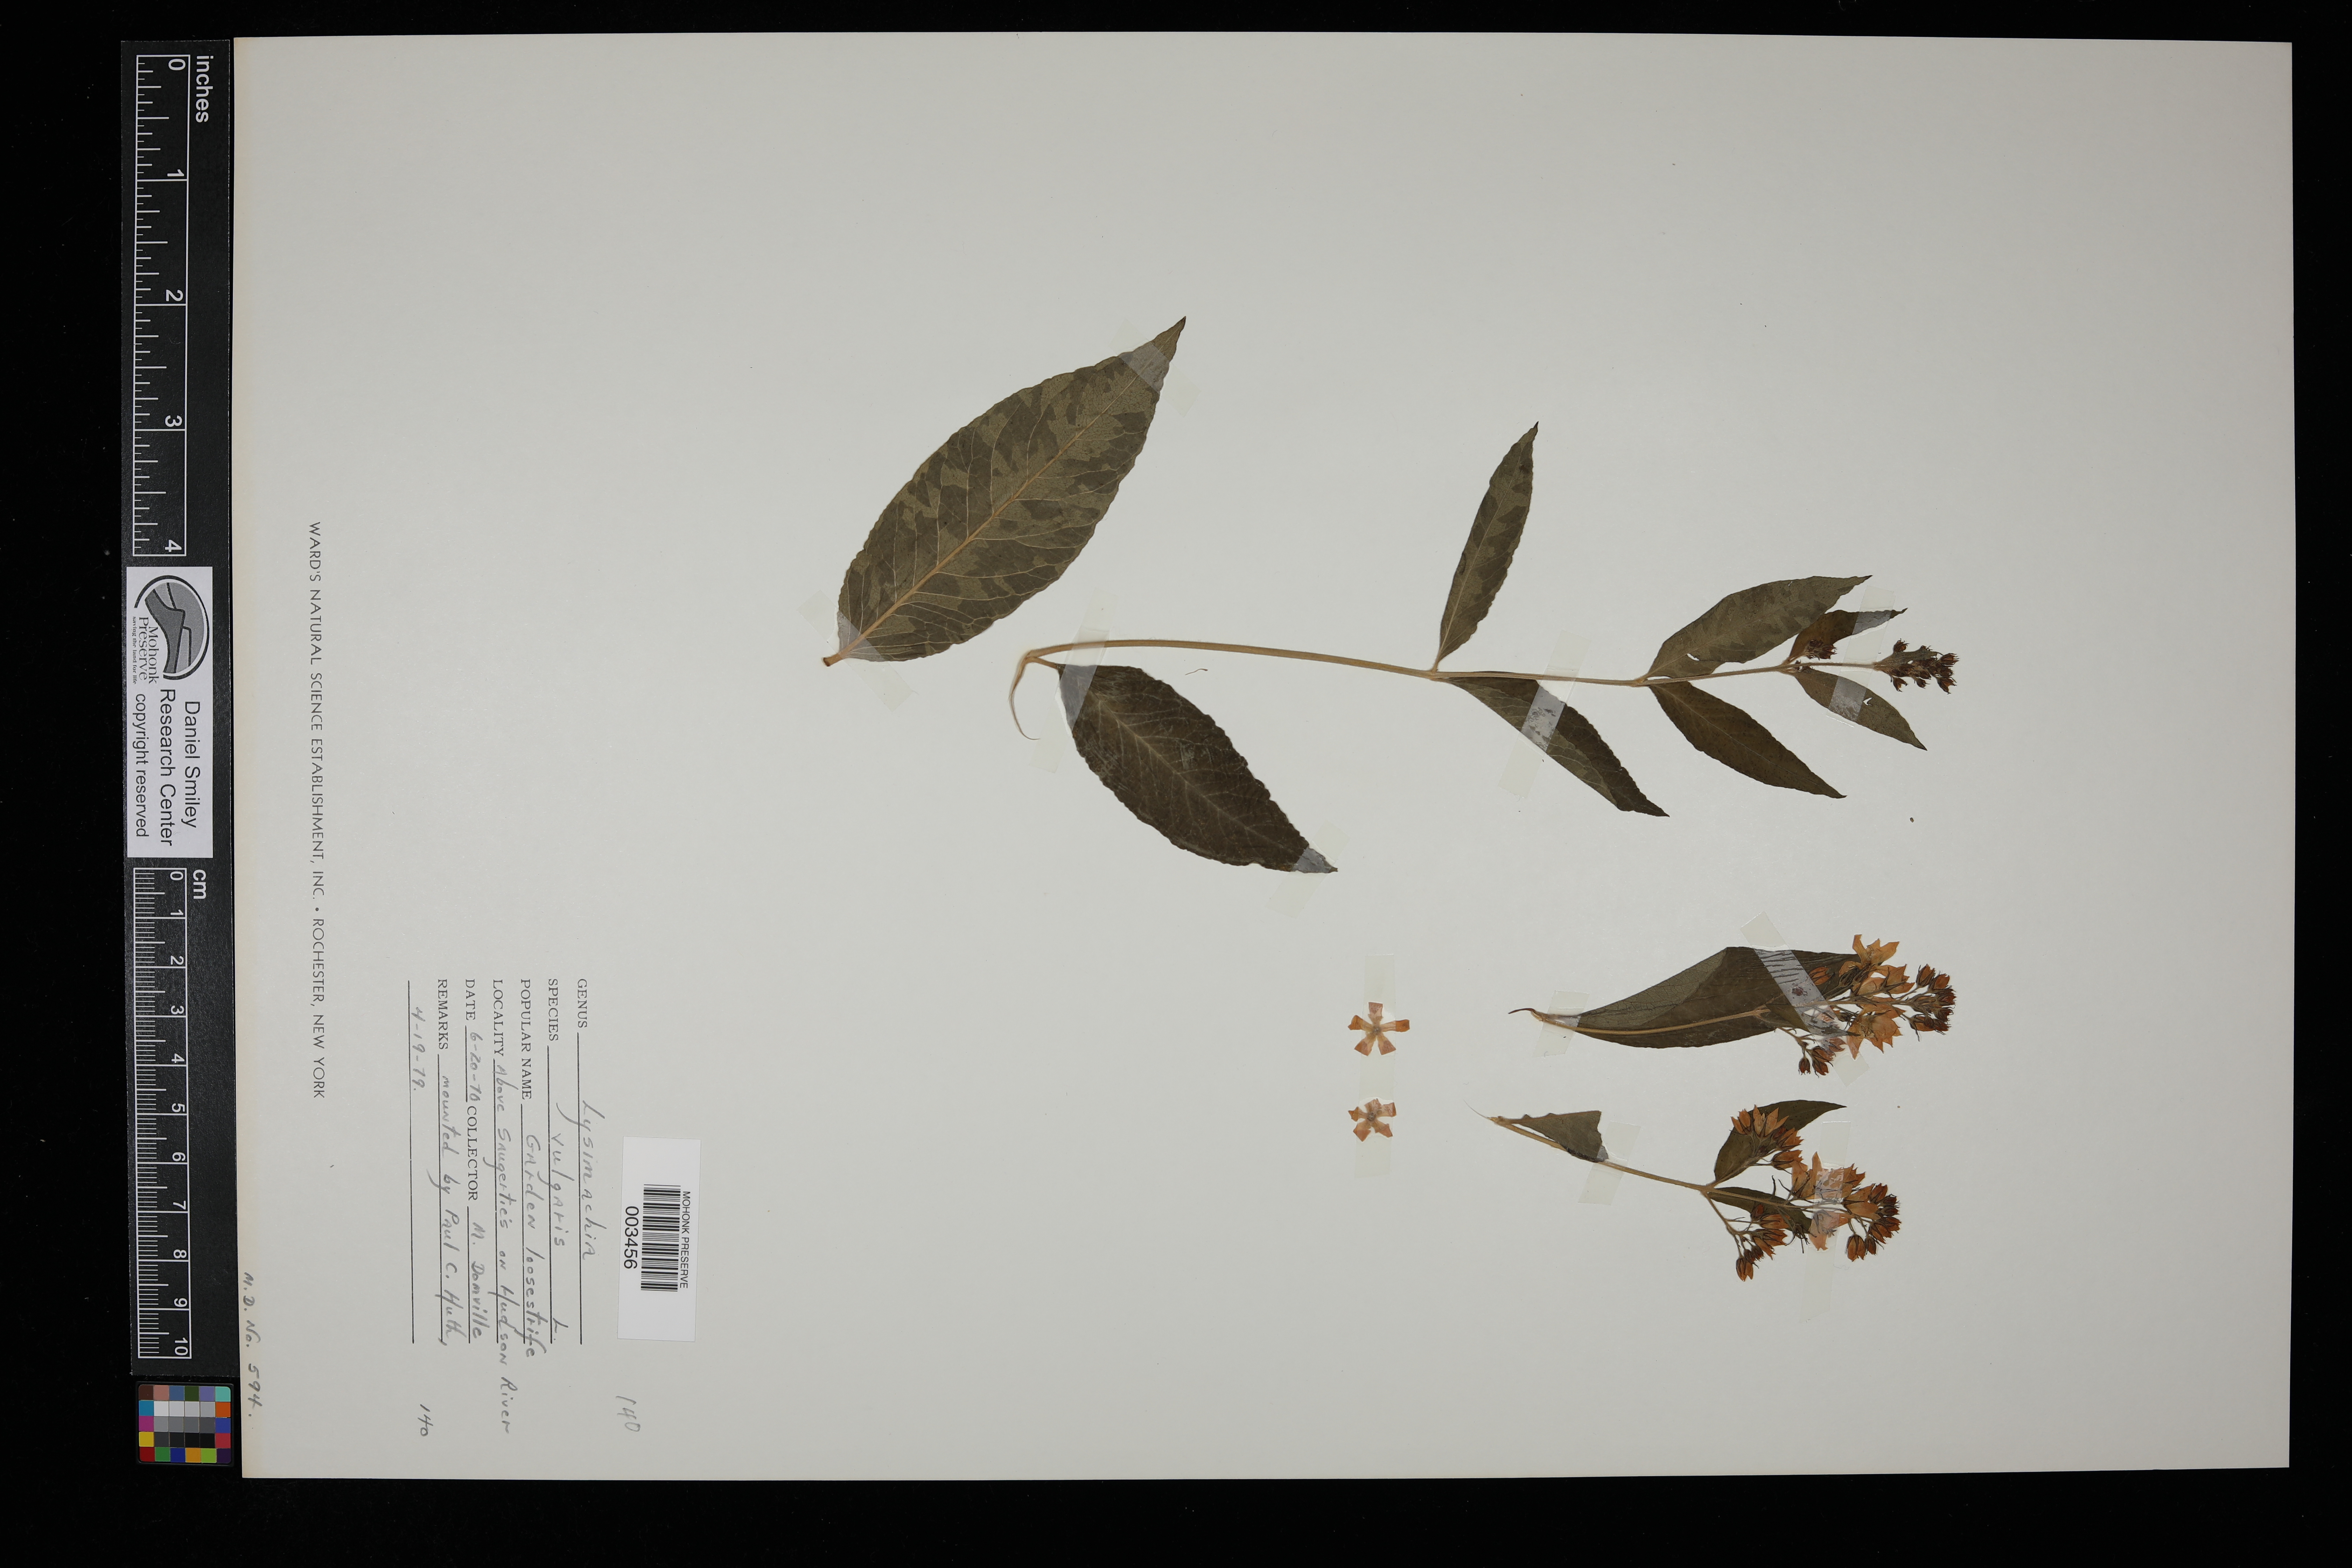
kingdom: Plantae
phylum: Tracheophyta
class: Magnoliopsida
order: Ericales
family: Primulaceae
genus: Lysimachia
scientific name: Lysimachia vulgaris
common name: Yellow loosestrife
